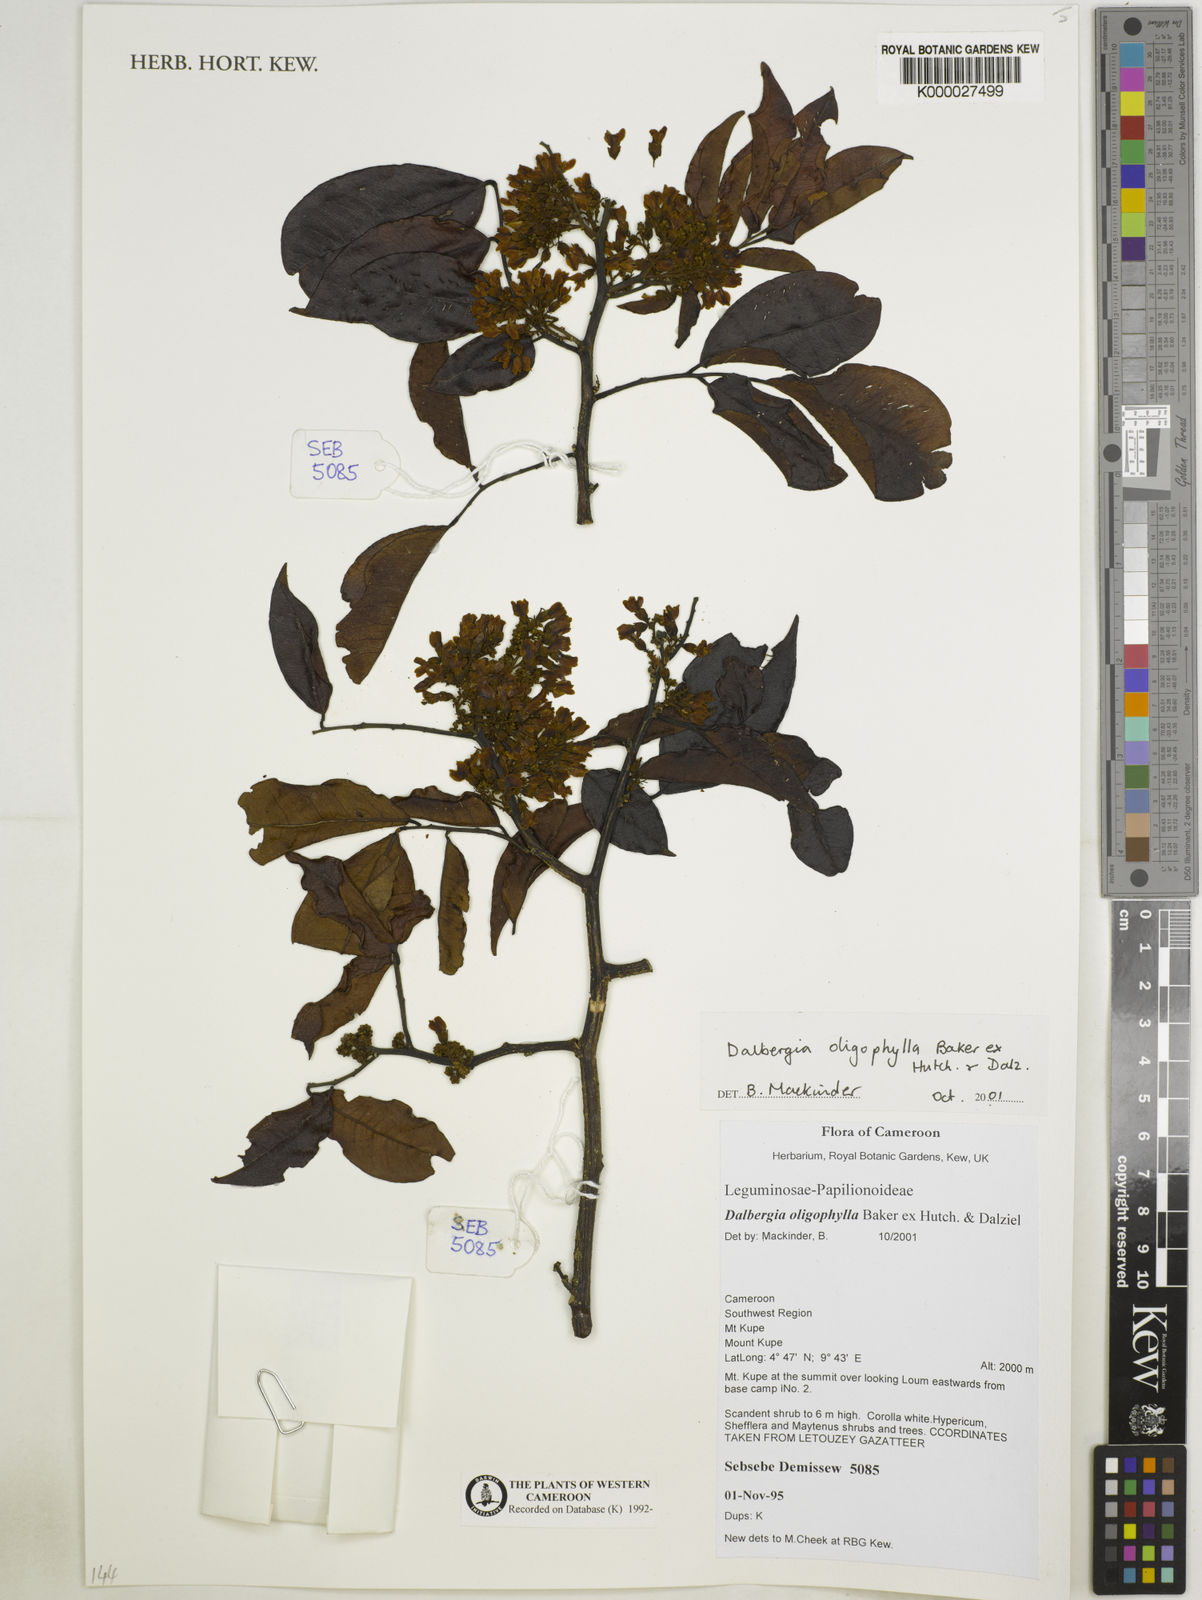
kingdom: Plantae
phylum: Tracheophyta
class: Magnoliopsida
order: Fabales
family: Fabaceae
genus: Dalbergia
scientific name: Dalbergia oligophylla
